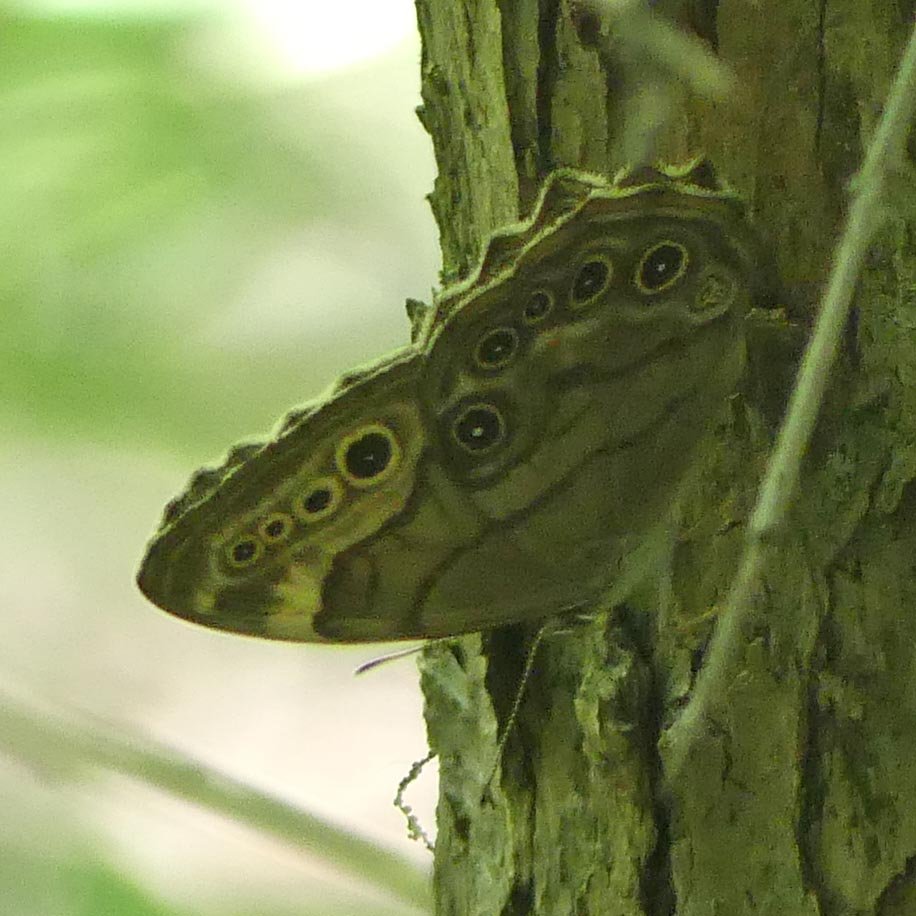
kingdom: Animalia
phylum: Arthropoda
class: Insecta
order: Lepidoptera
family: Nymphalidae
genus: Lethe
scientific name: Lethe anthedon
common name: Northern Pearly-Eye
